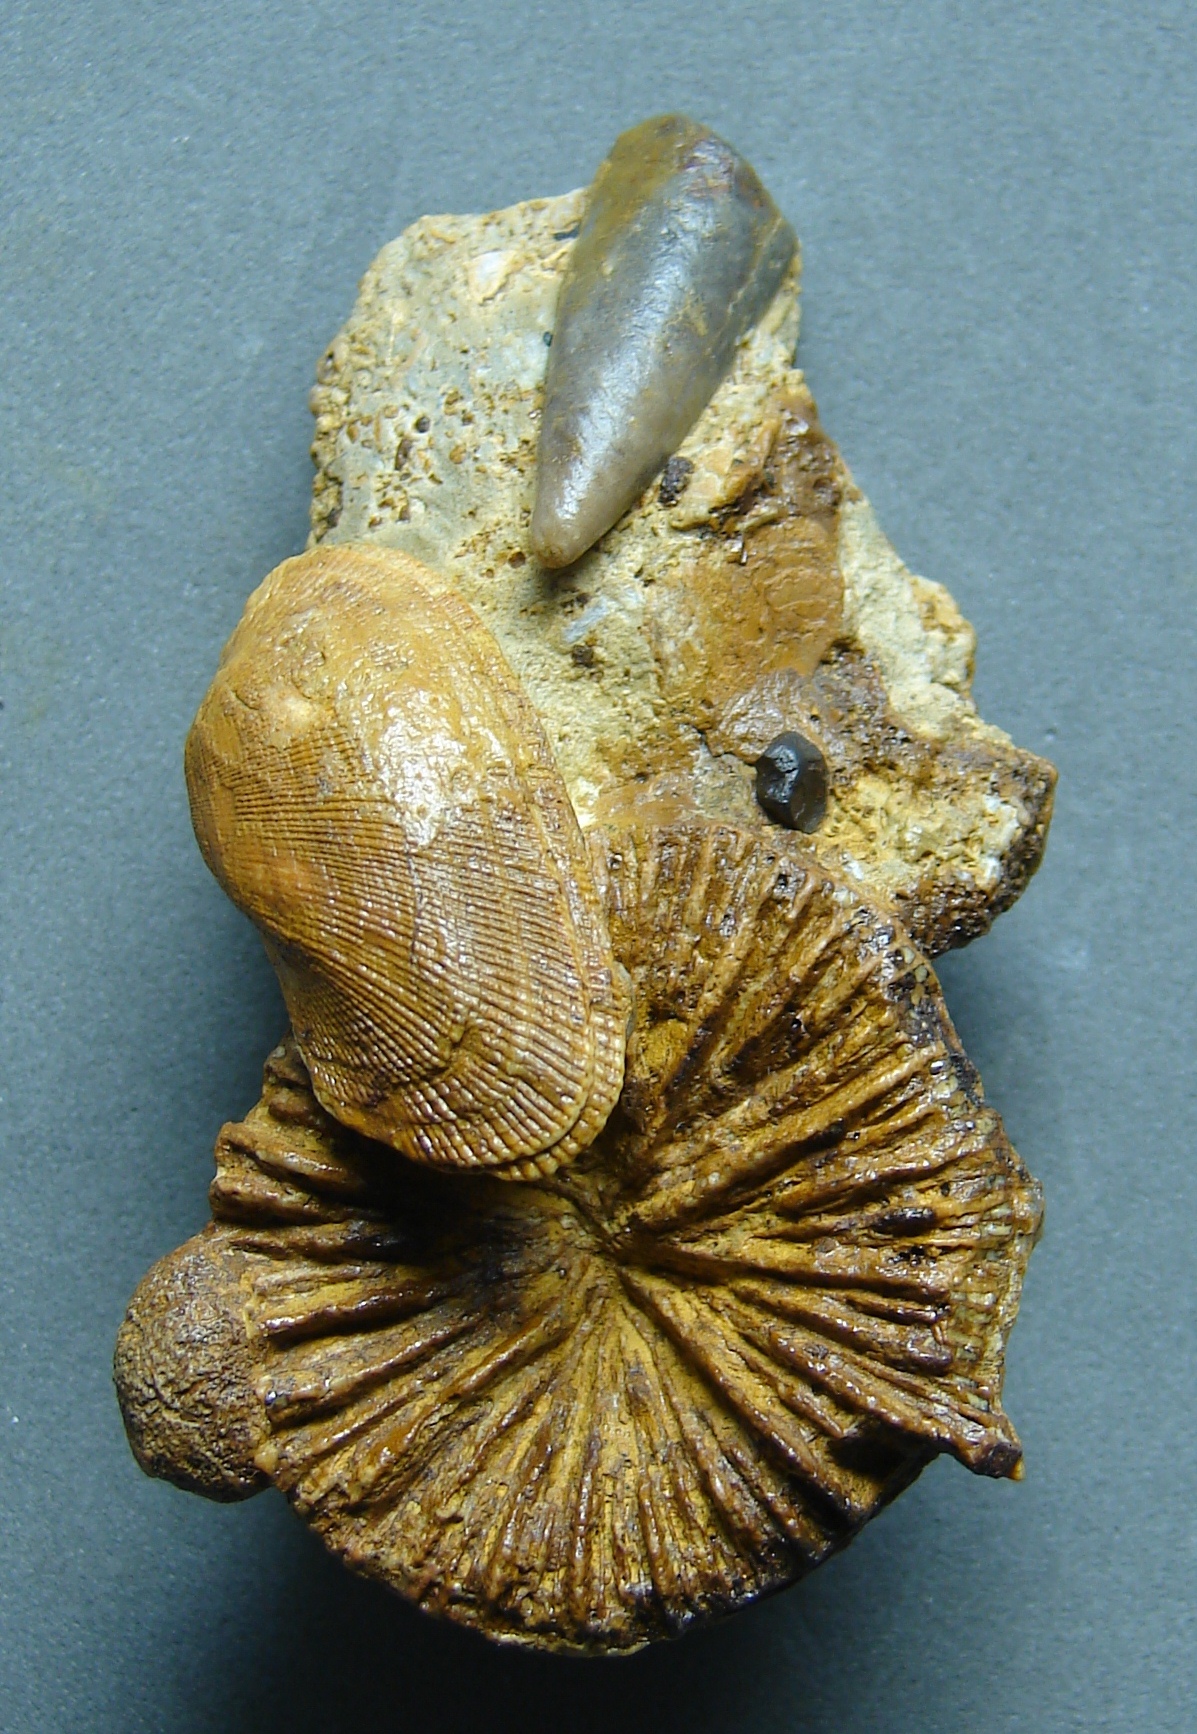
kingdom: Animalia
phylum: Cnidaria
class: Anthozoa
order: Scleractinia
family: Thecosmiliidae
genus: Montlivaultia
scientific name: Montlivaultia
